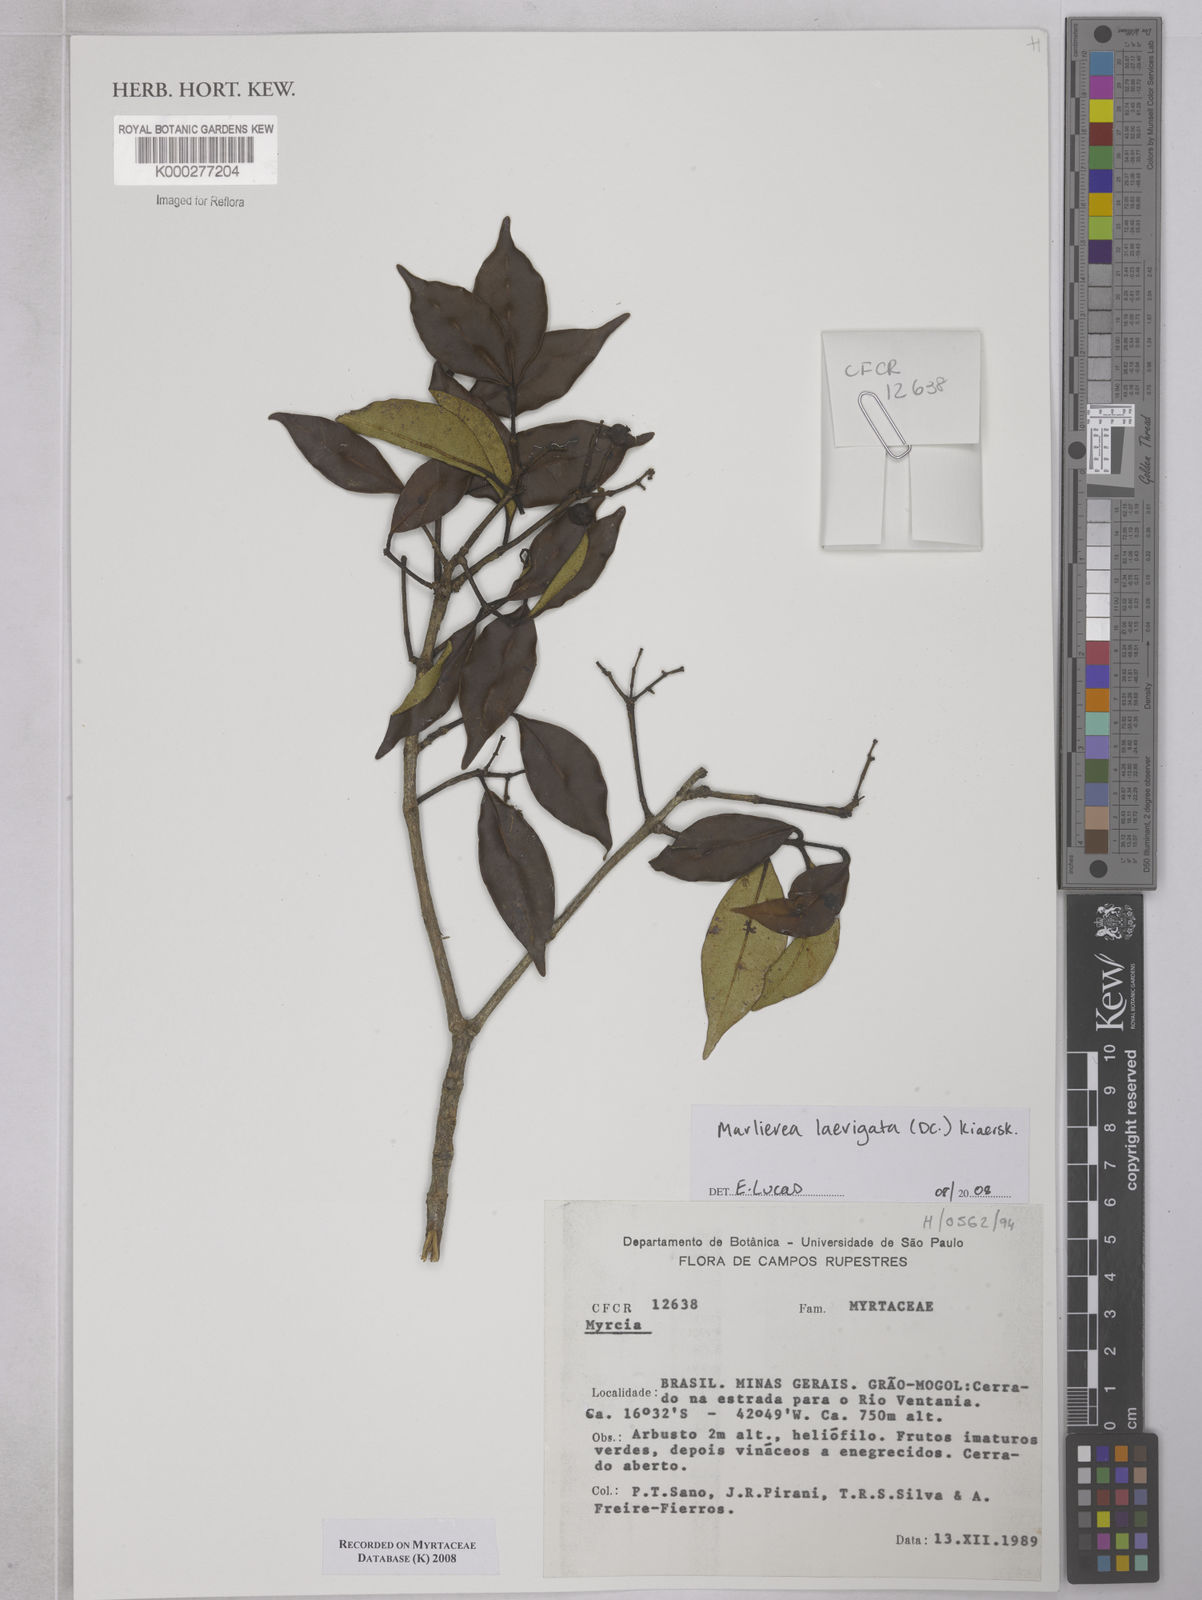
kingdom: Plantae
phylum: Tracheophyta
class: Magnoliopsida
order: Myrtales
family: Myrtaceae
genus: Myrcia
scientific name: Myrcia multipunctata
